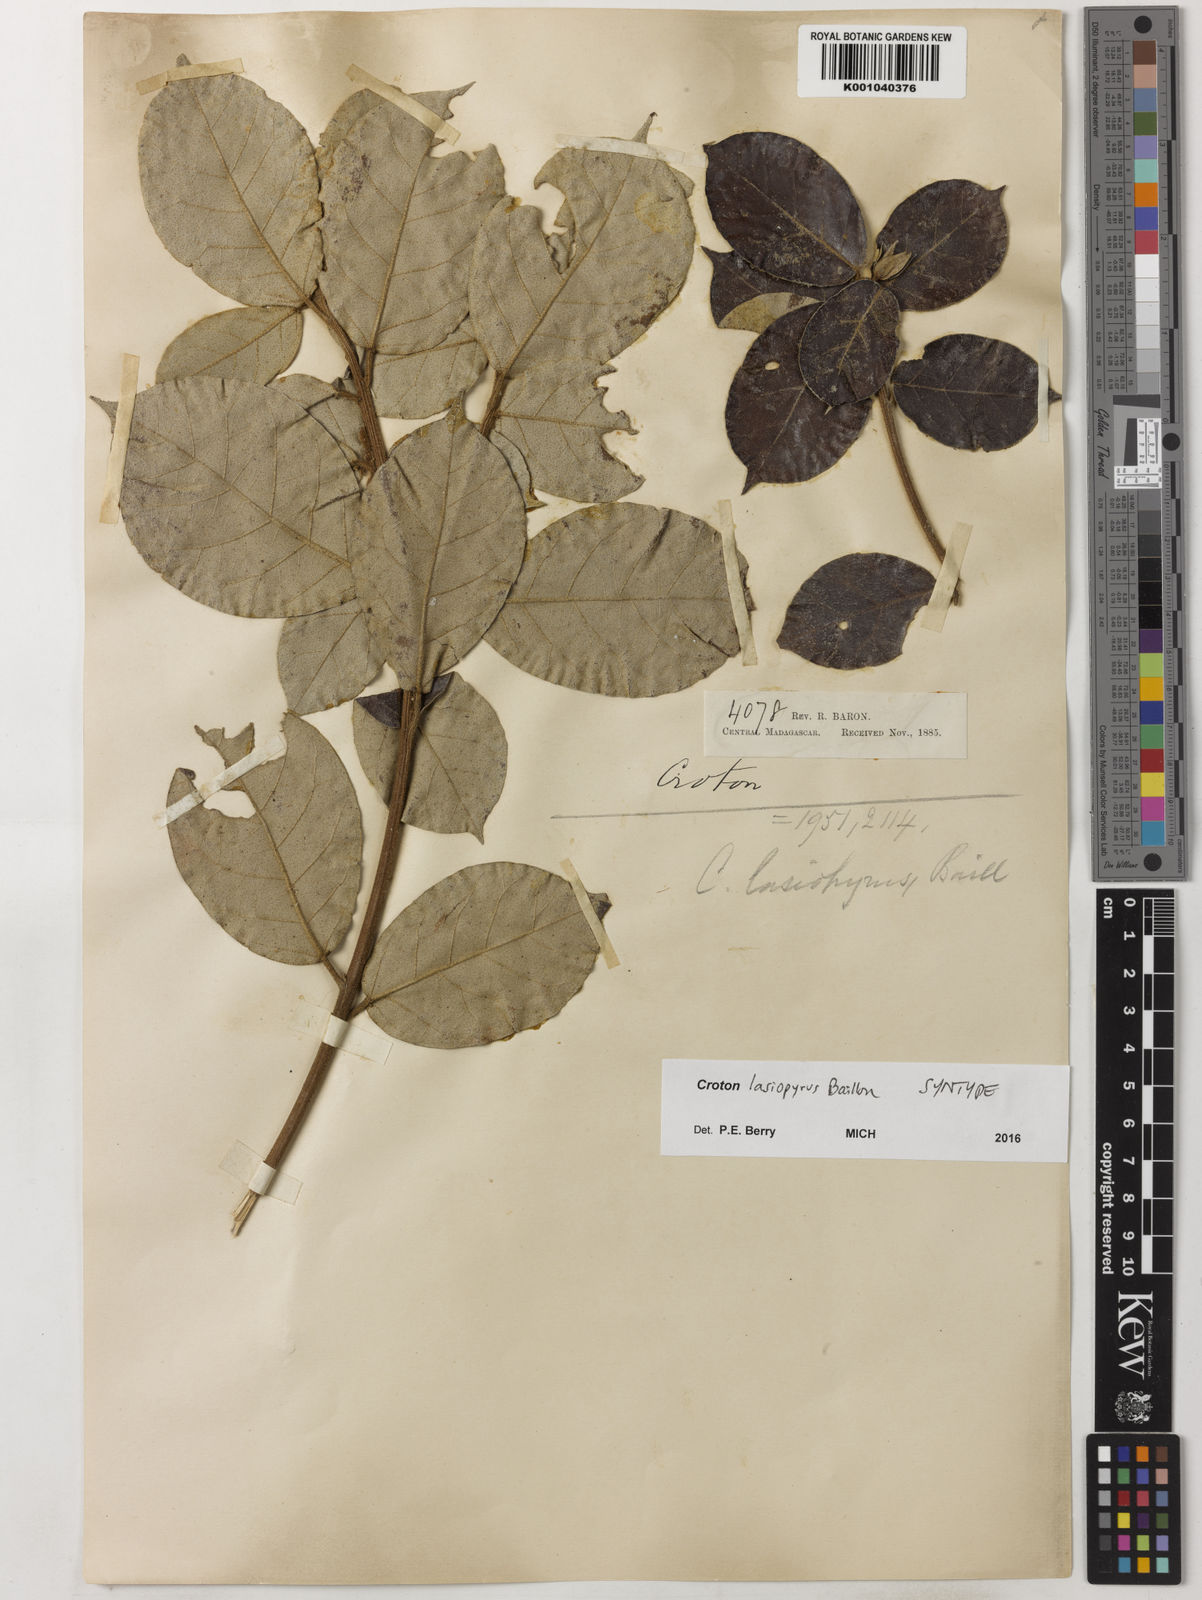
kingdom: Plantae
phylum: Tracheophyta
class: Magnoliopsida
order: Malpighiales
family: Euphorbiaceae
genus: Croton
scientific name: Croton lasiopyrus
